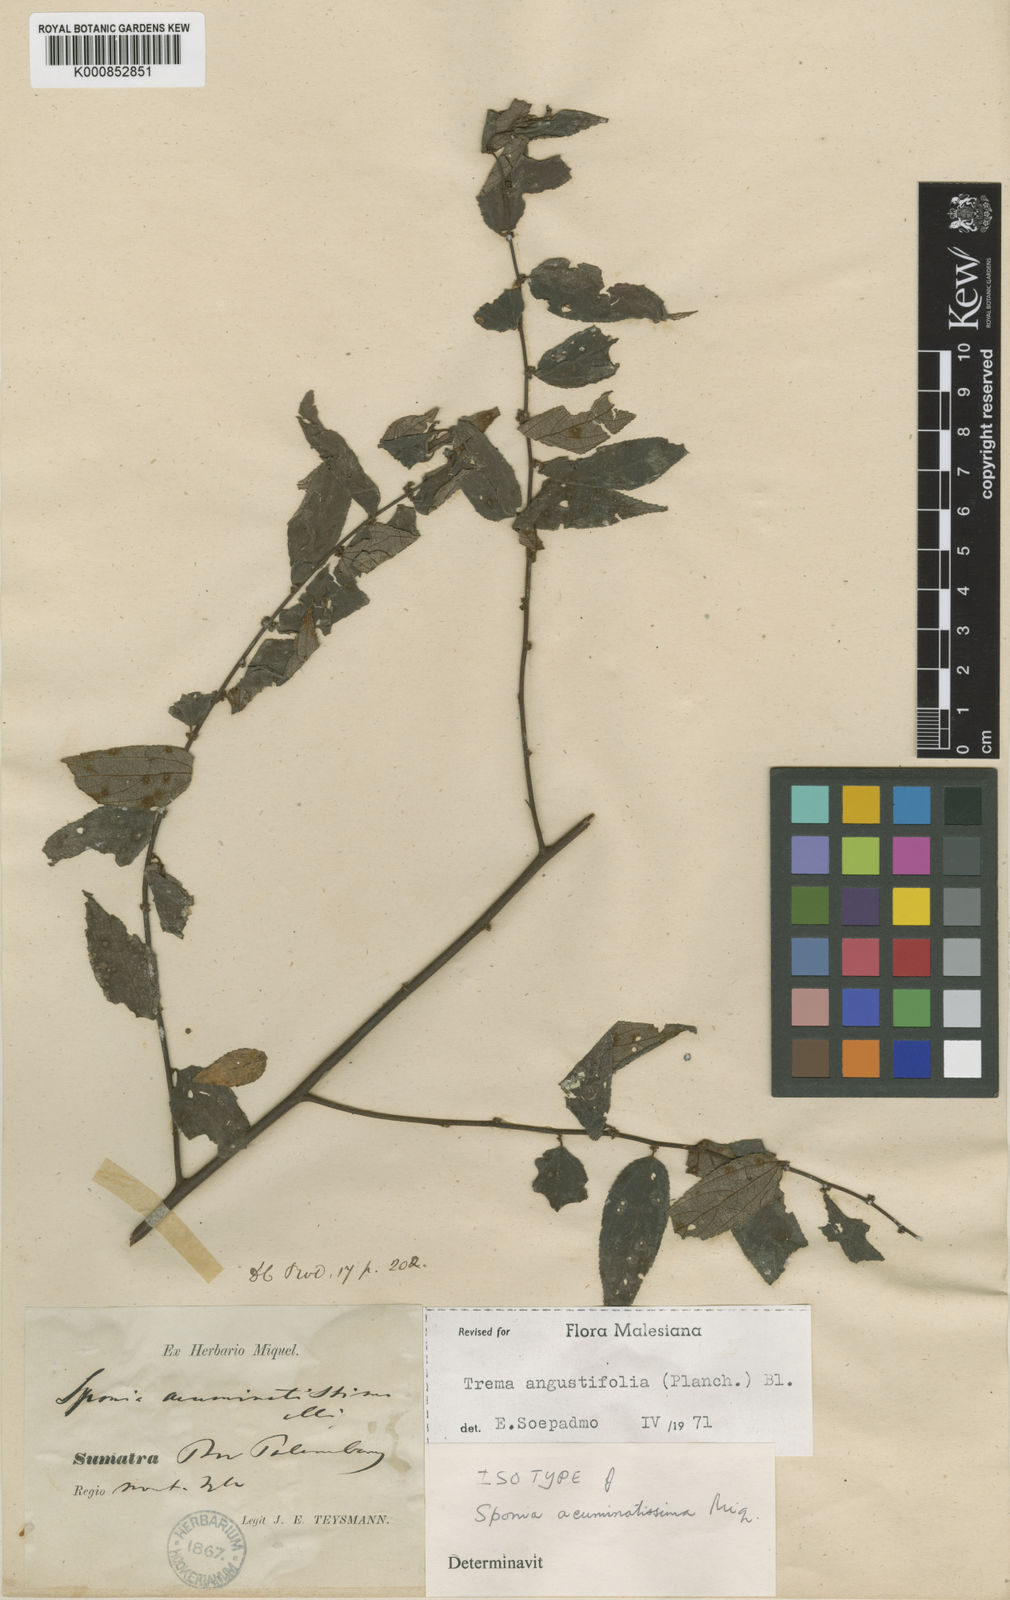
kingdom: Plantae
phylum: Tracheophyta
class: Magnoliopsida
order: Rosales
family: Cannabaceae
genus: Trema
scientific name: Trema angustifolium
